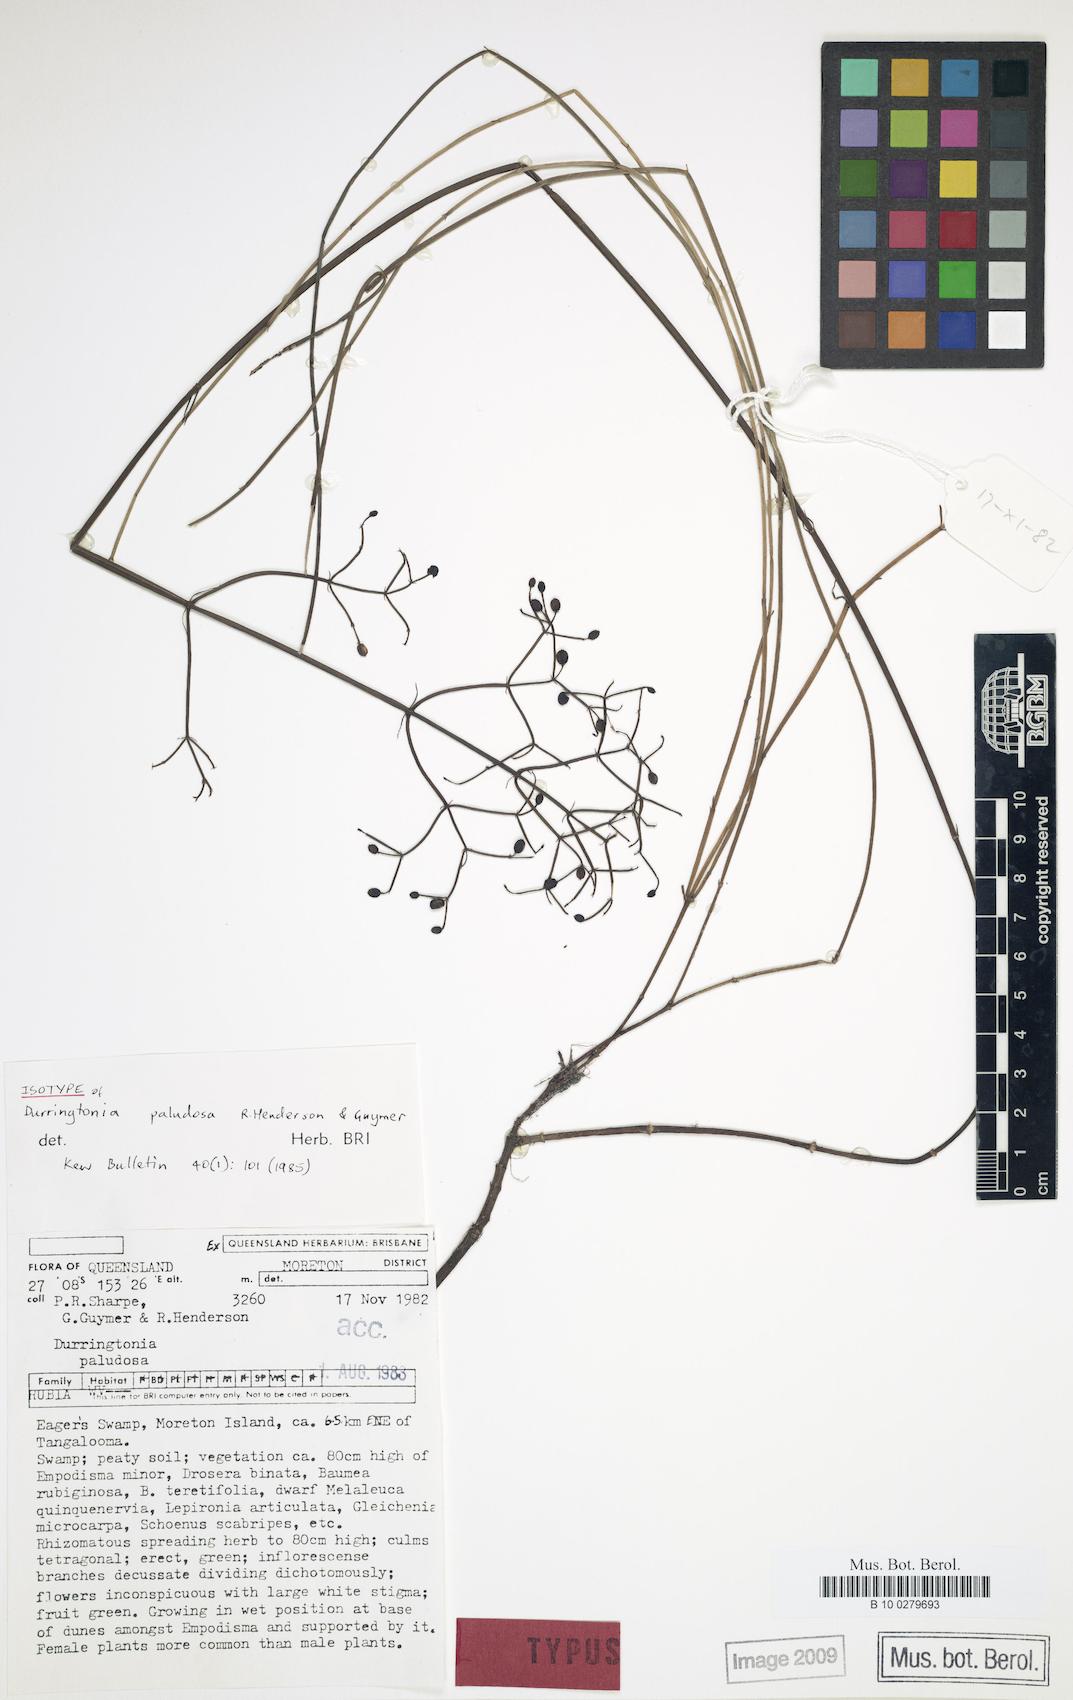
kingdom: Plantae
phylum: Tracheophyta
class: Magnoliopsida
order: Gentianales
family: Rubiaceae
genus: Durringtonia
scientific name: Durringtonia paludosa
